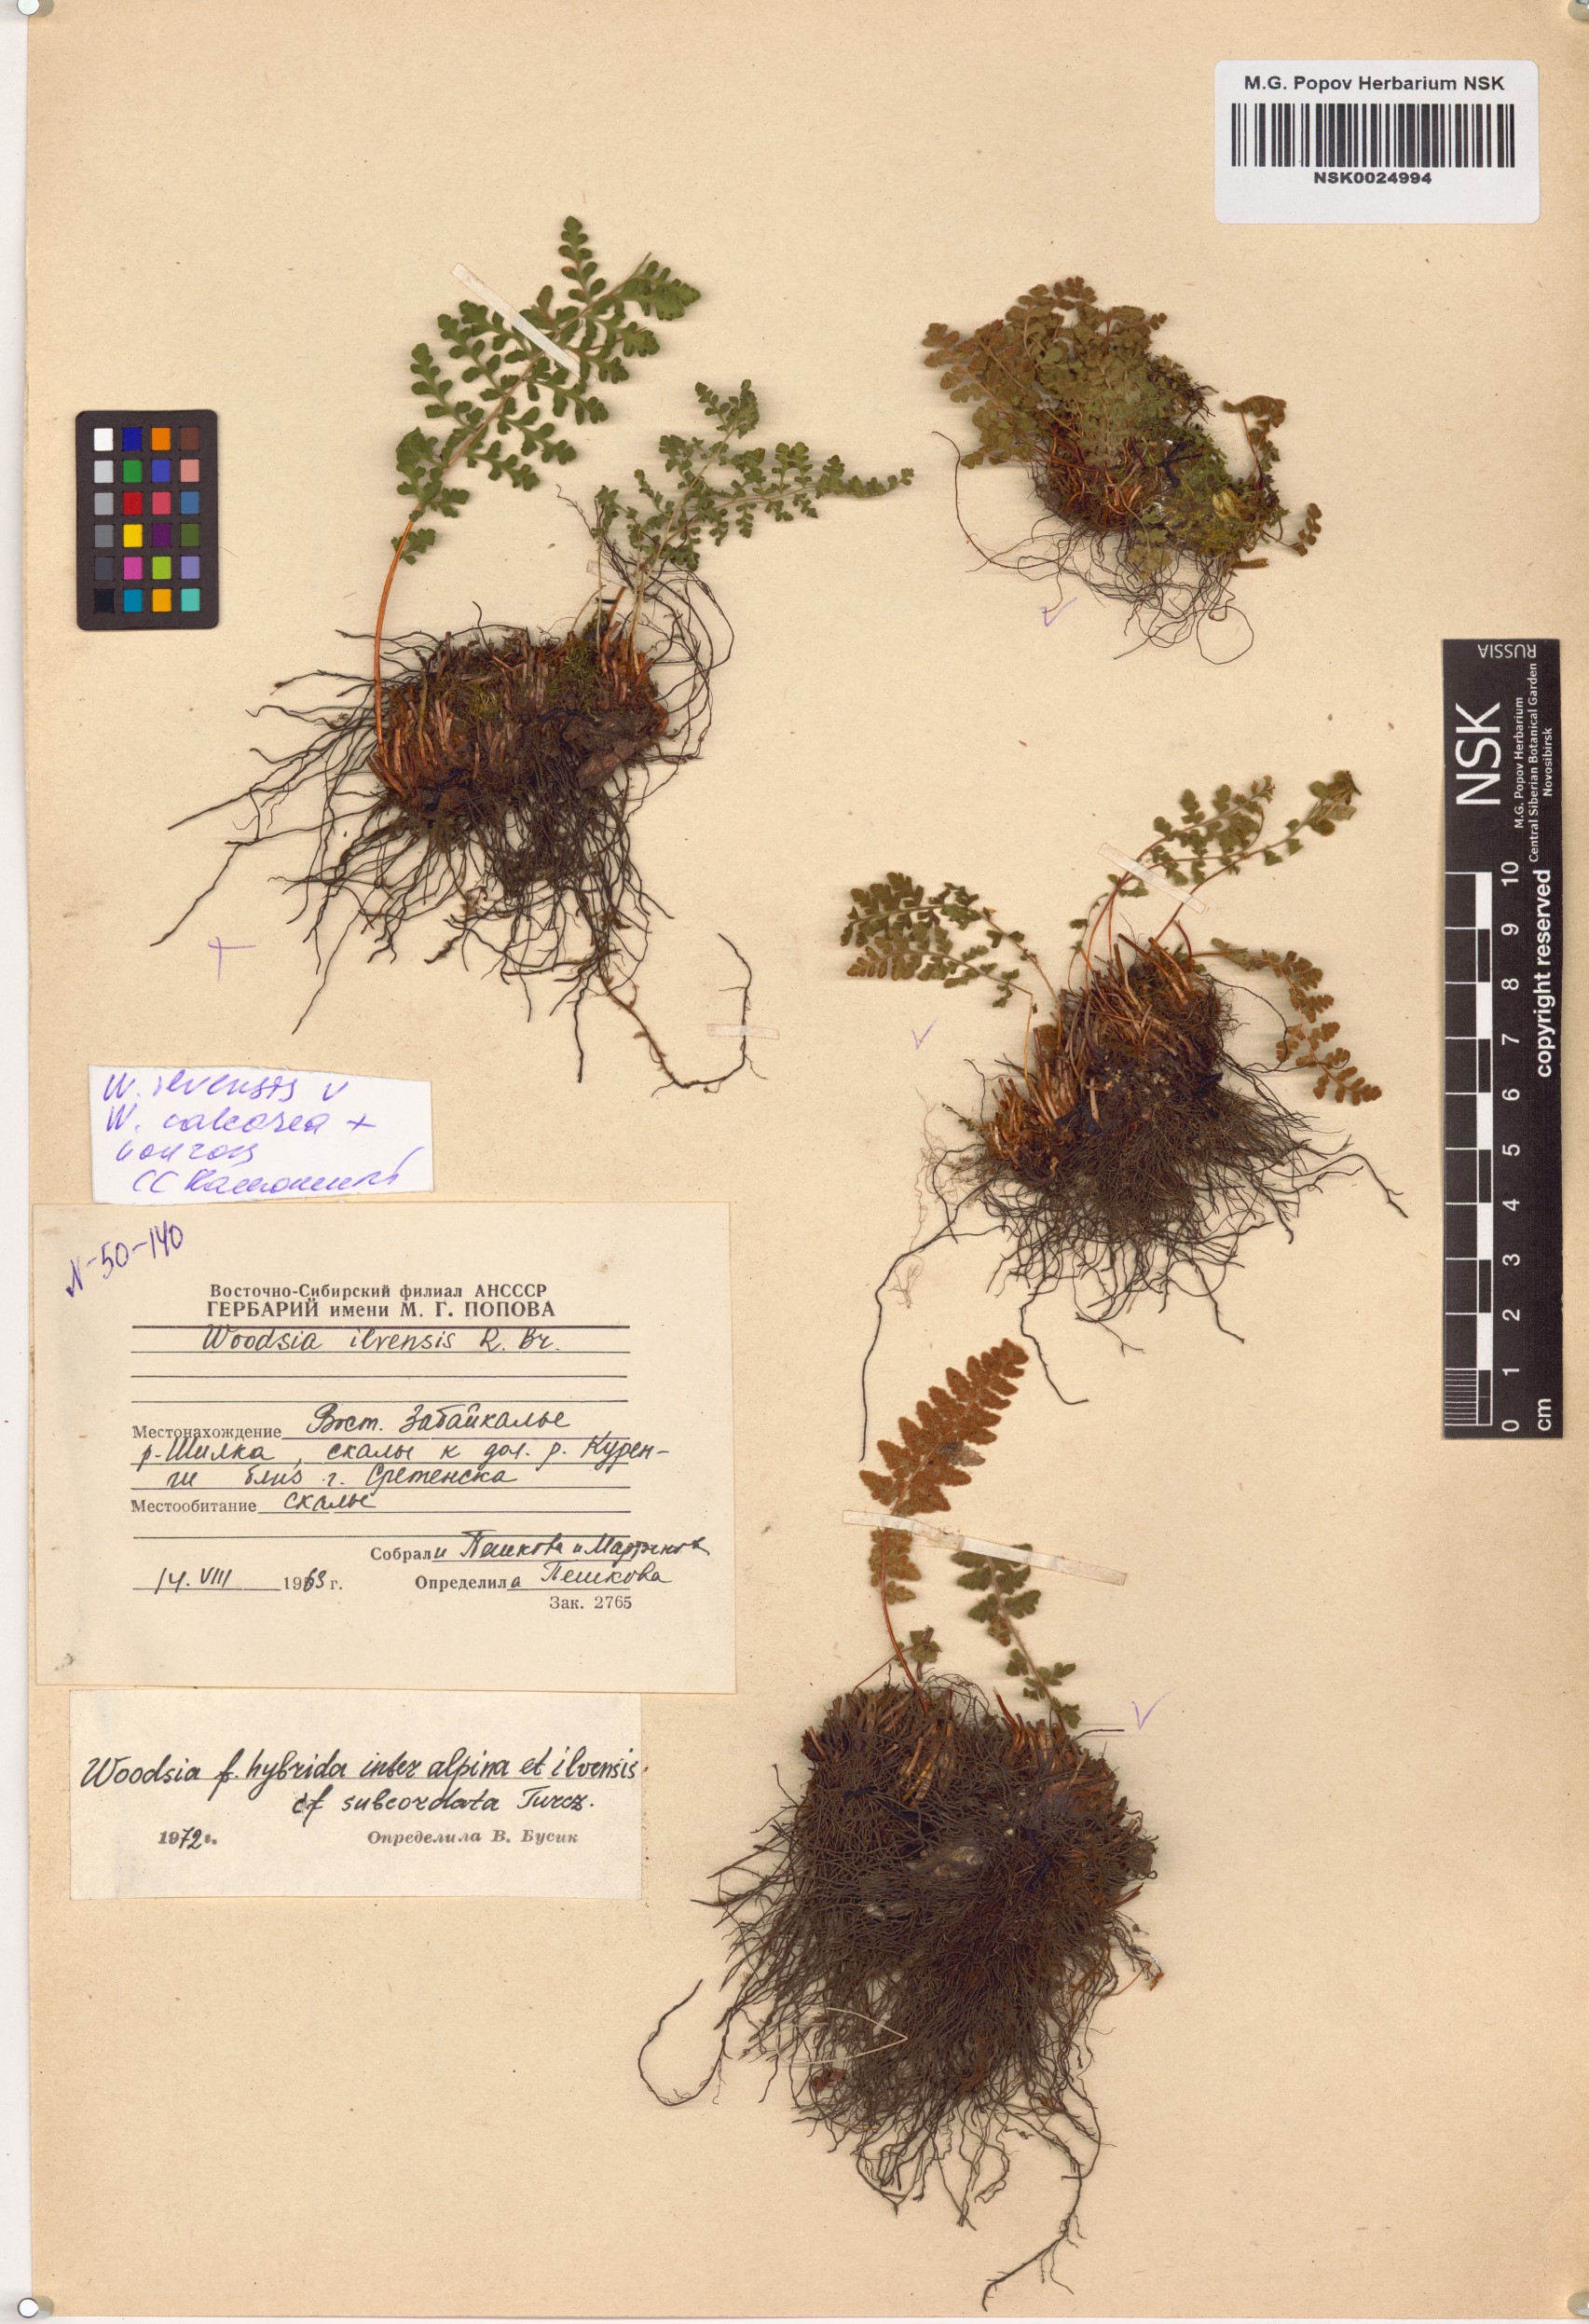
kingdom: Plantae
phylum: Tracheophyta
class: Polypodiopsida
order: Polypodiales
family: Woodsiaceae
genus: Woodsia
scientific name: Woodsia ilvensis
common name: Fragrant woodsia
